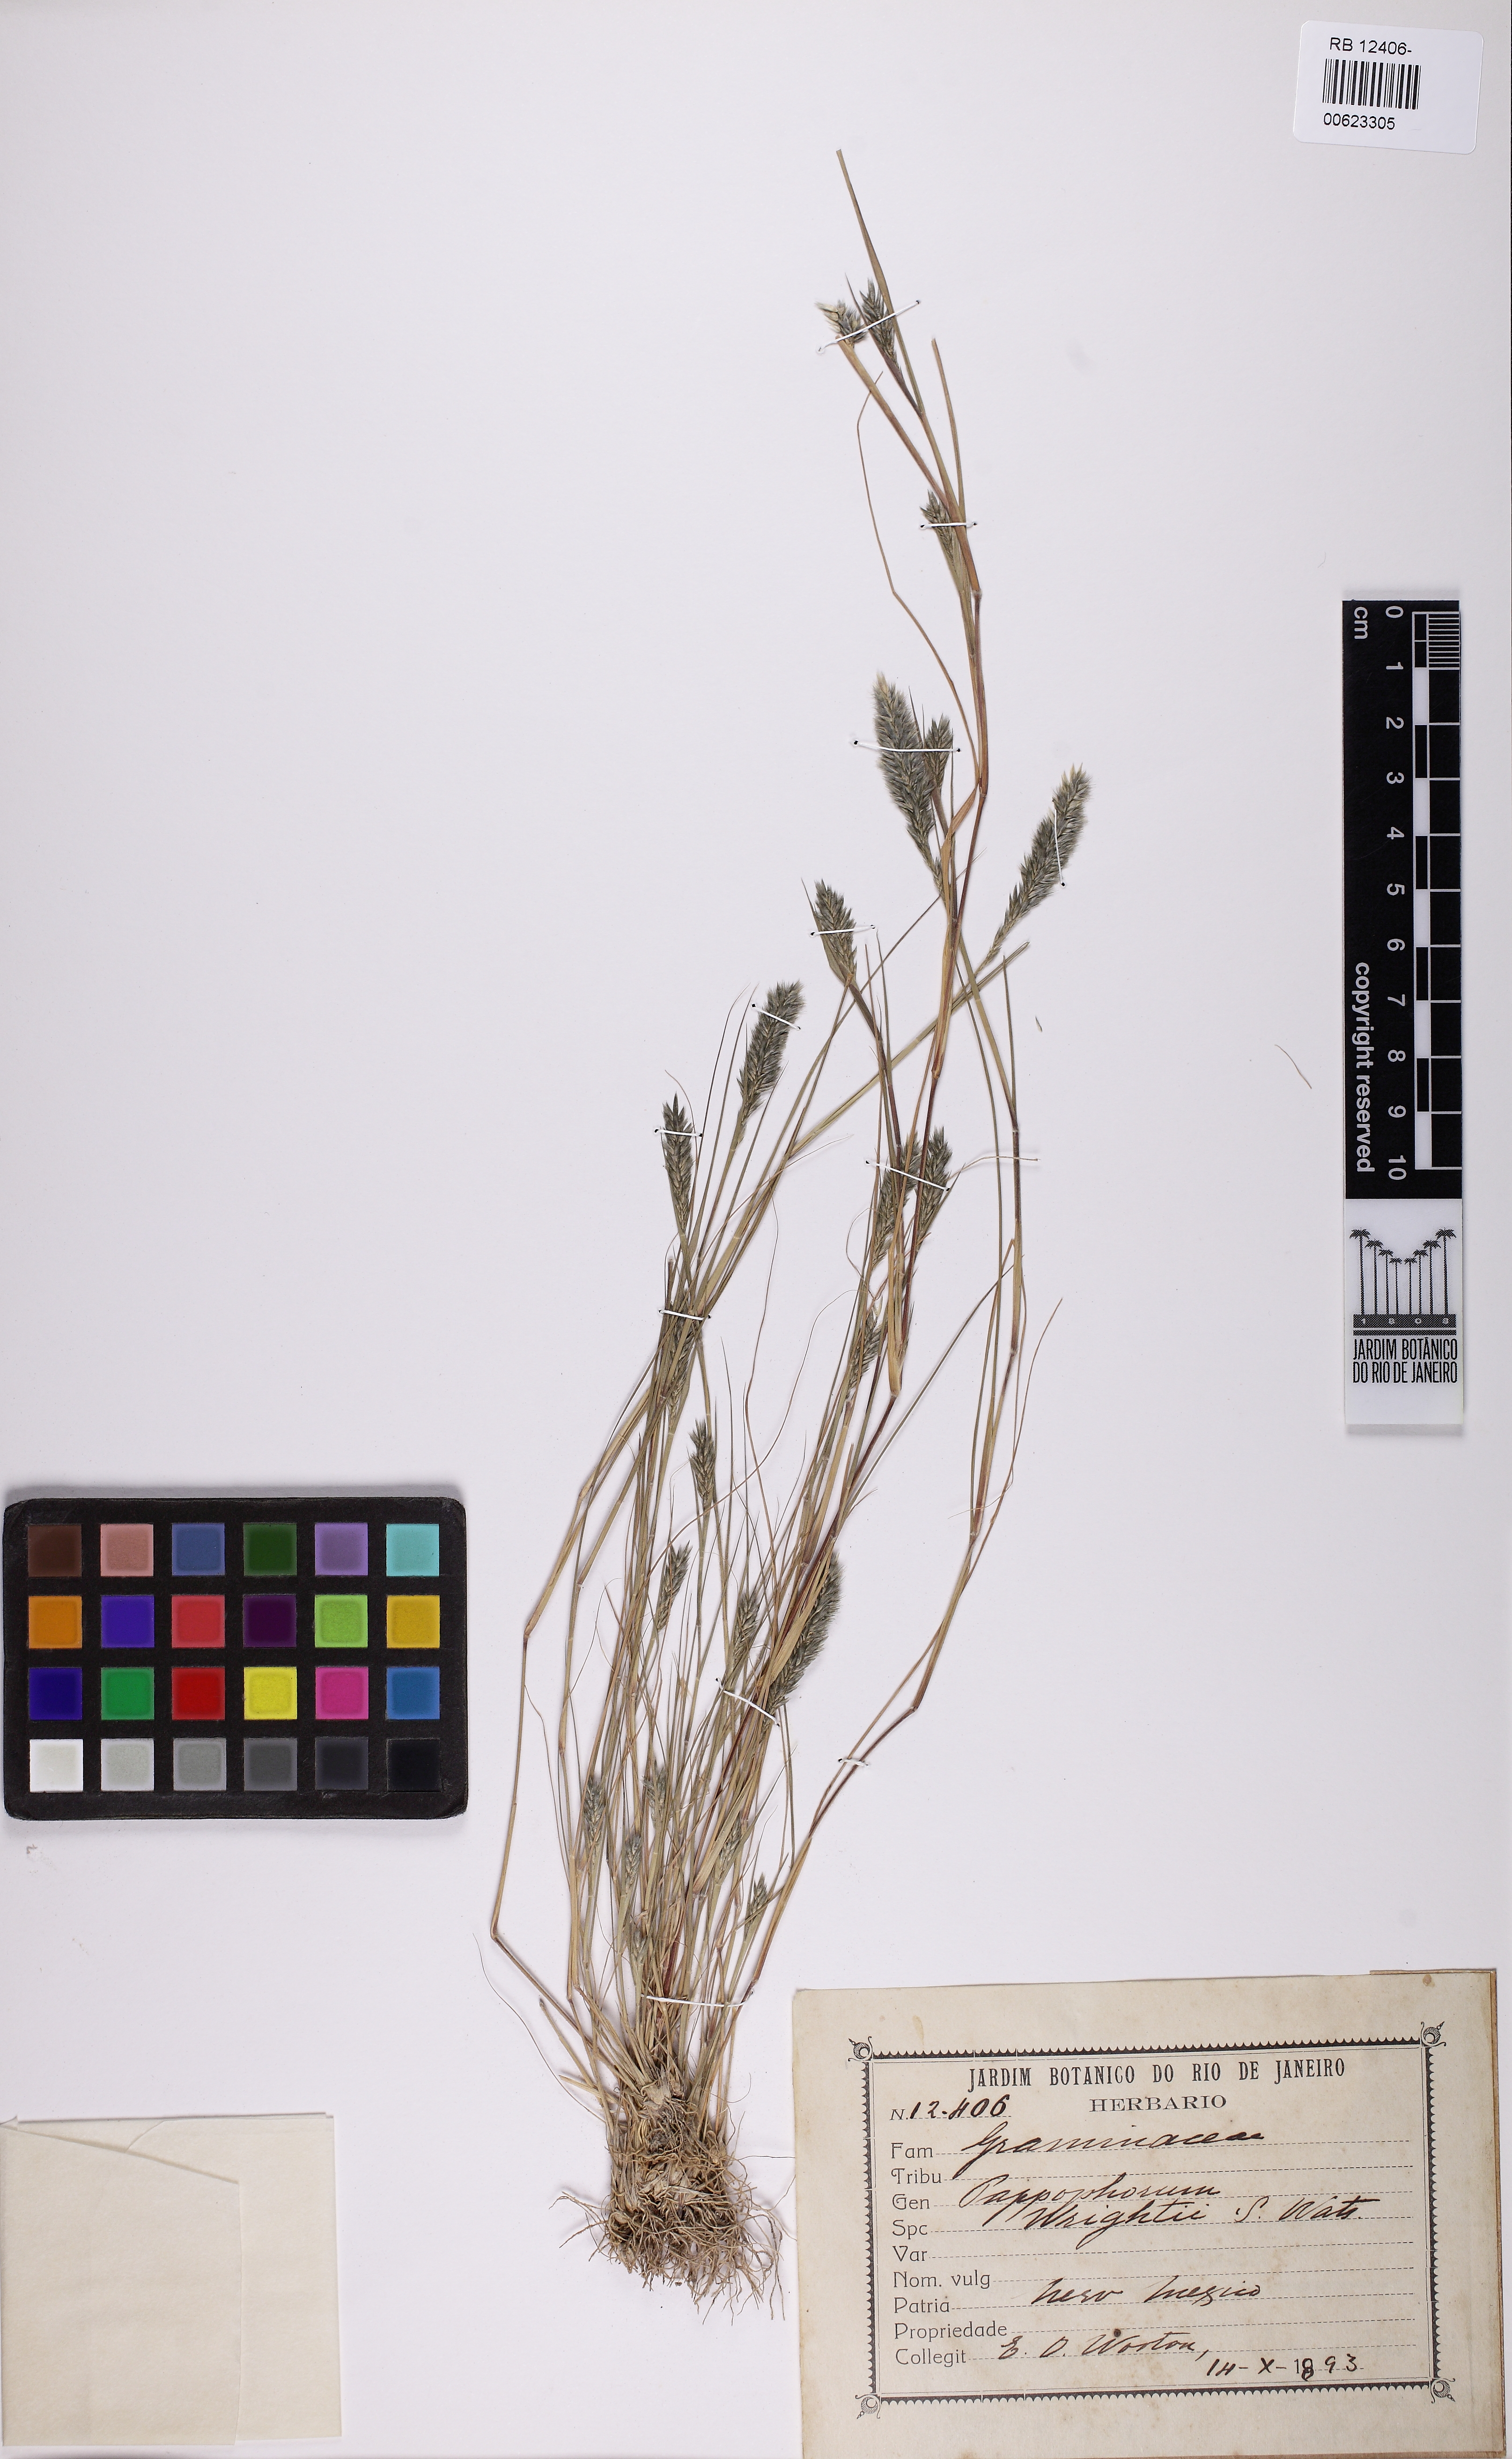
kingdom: Plantae
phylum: Tracheophyta
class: Liliopsida
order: Poales
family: Poaceae
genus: Enneapogon
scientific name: Enneapogon desvauxii
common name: Feather pappus grass
